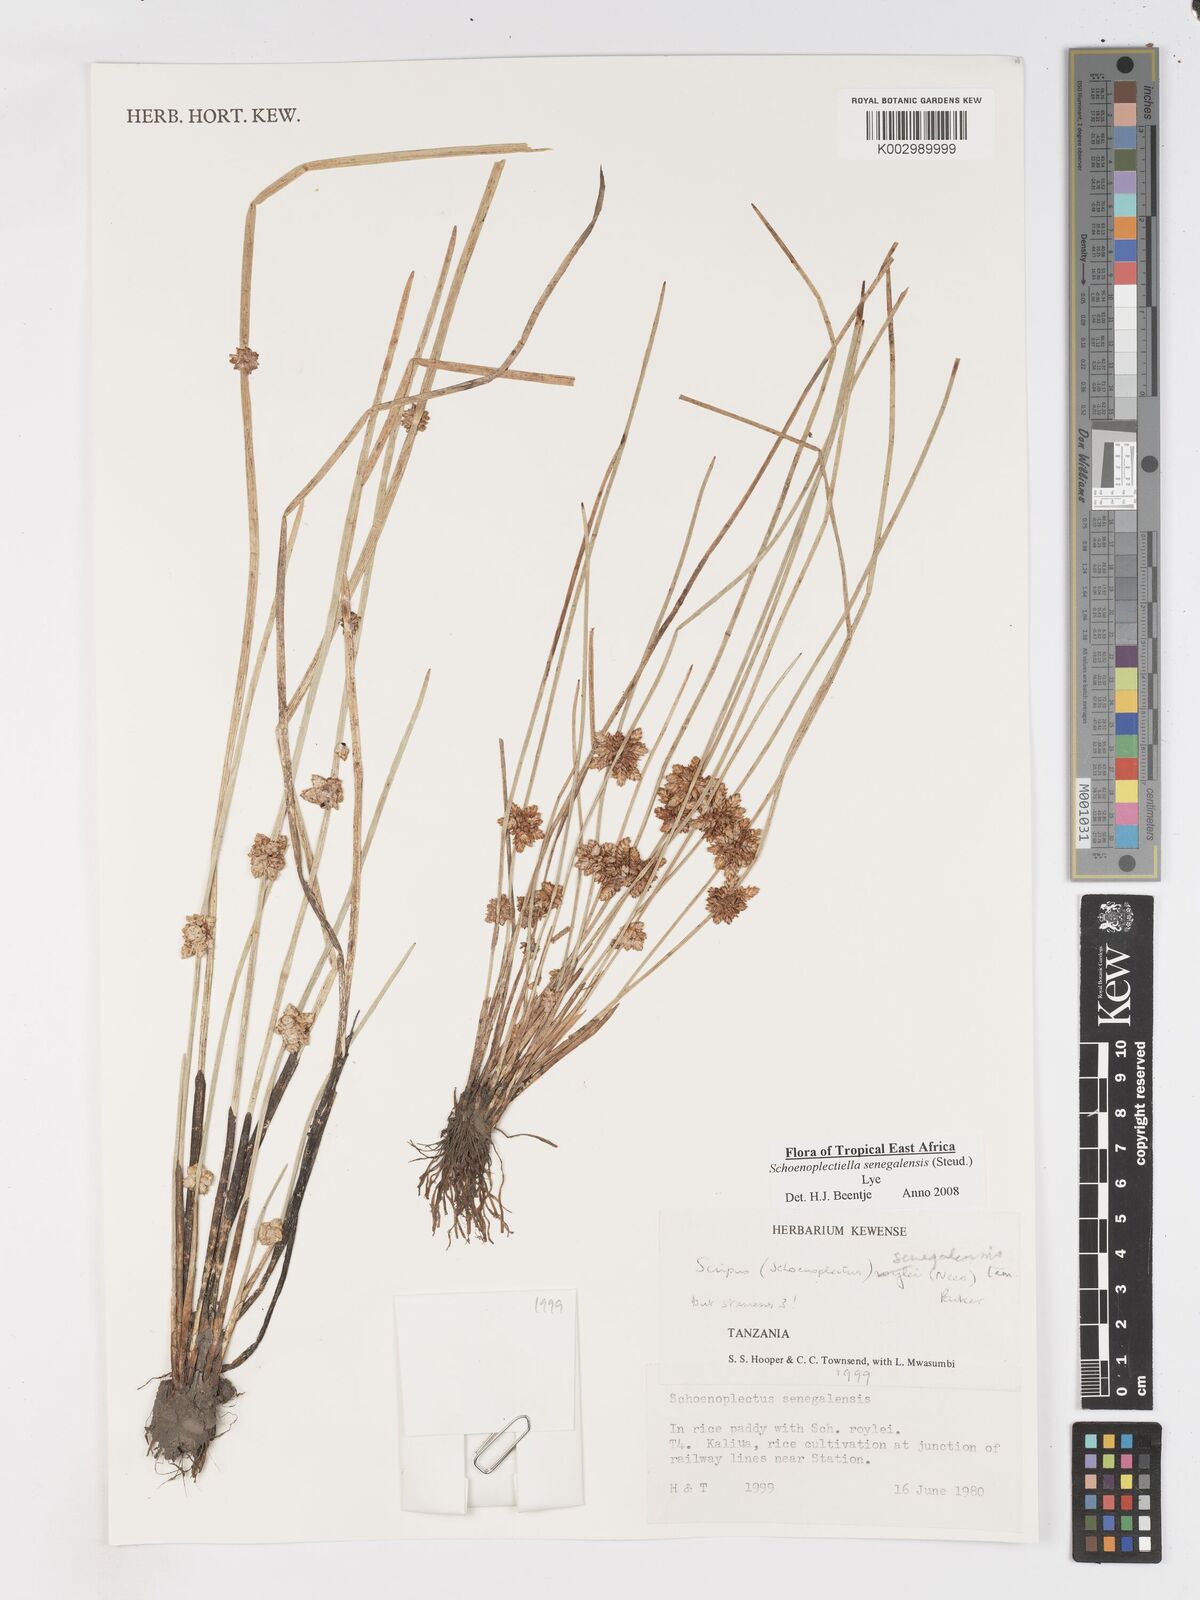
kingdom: Plantae
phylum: Tracheophyta
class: Liliopsida
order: Poales
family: Cyperaceae
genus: Schoenoplectiella
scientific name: Schoenoplectiella senegalensis
